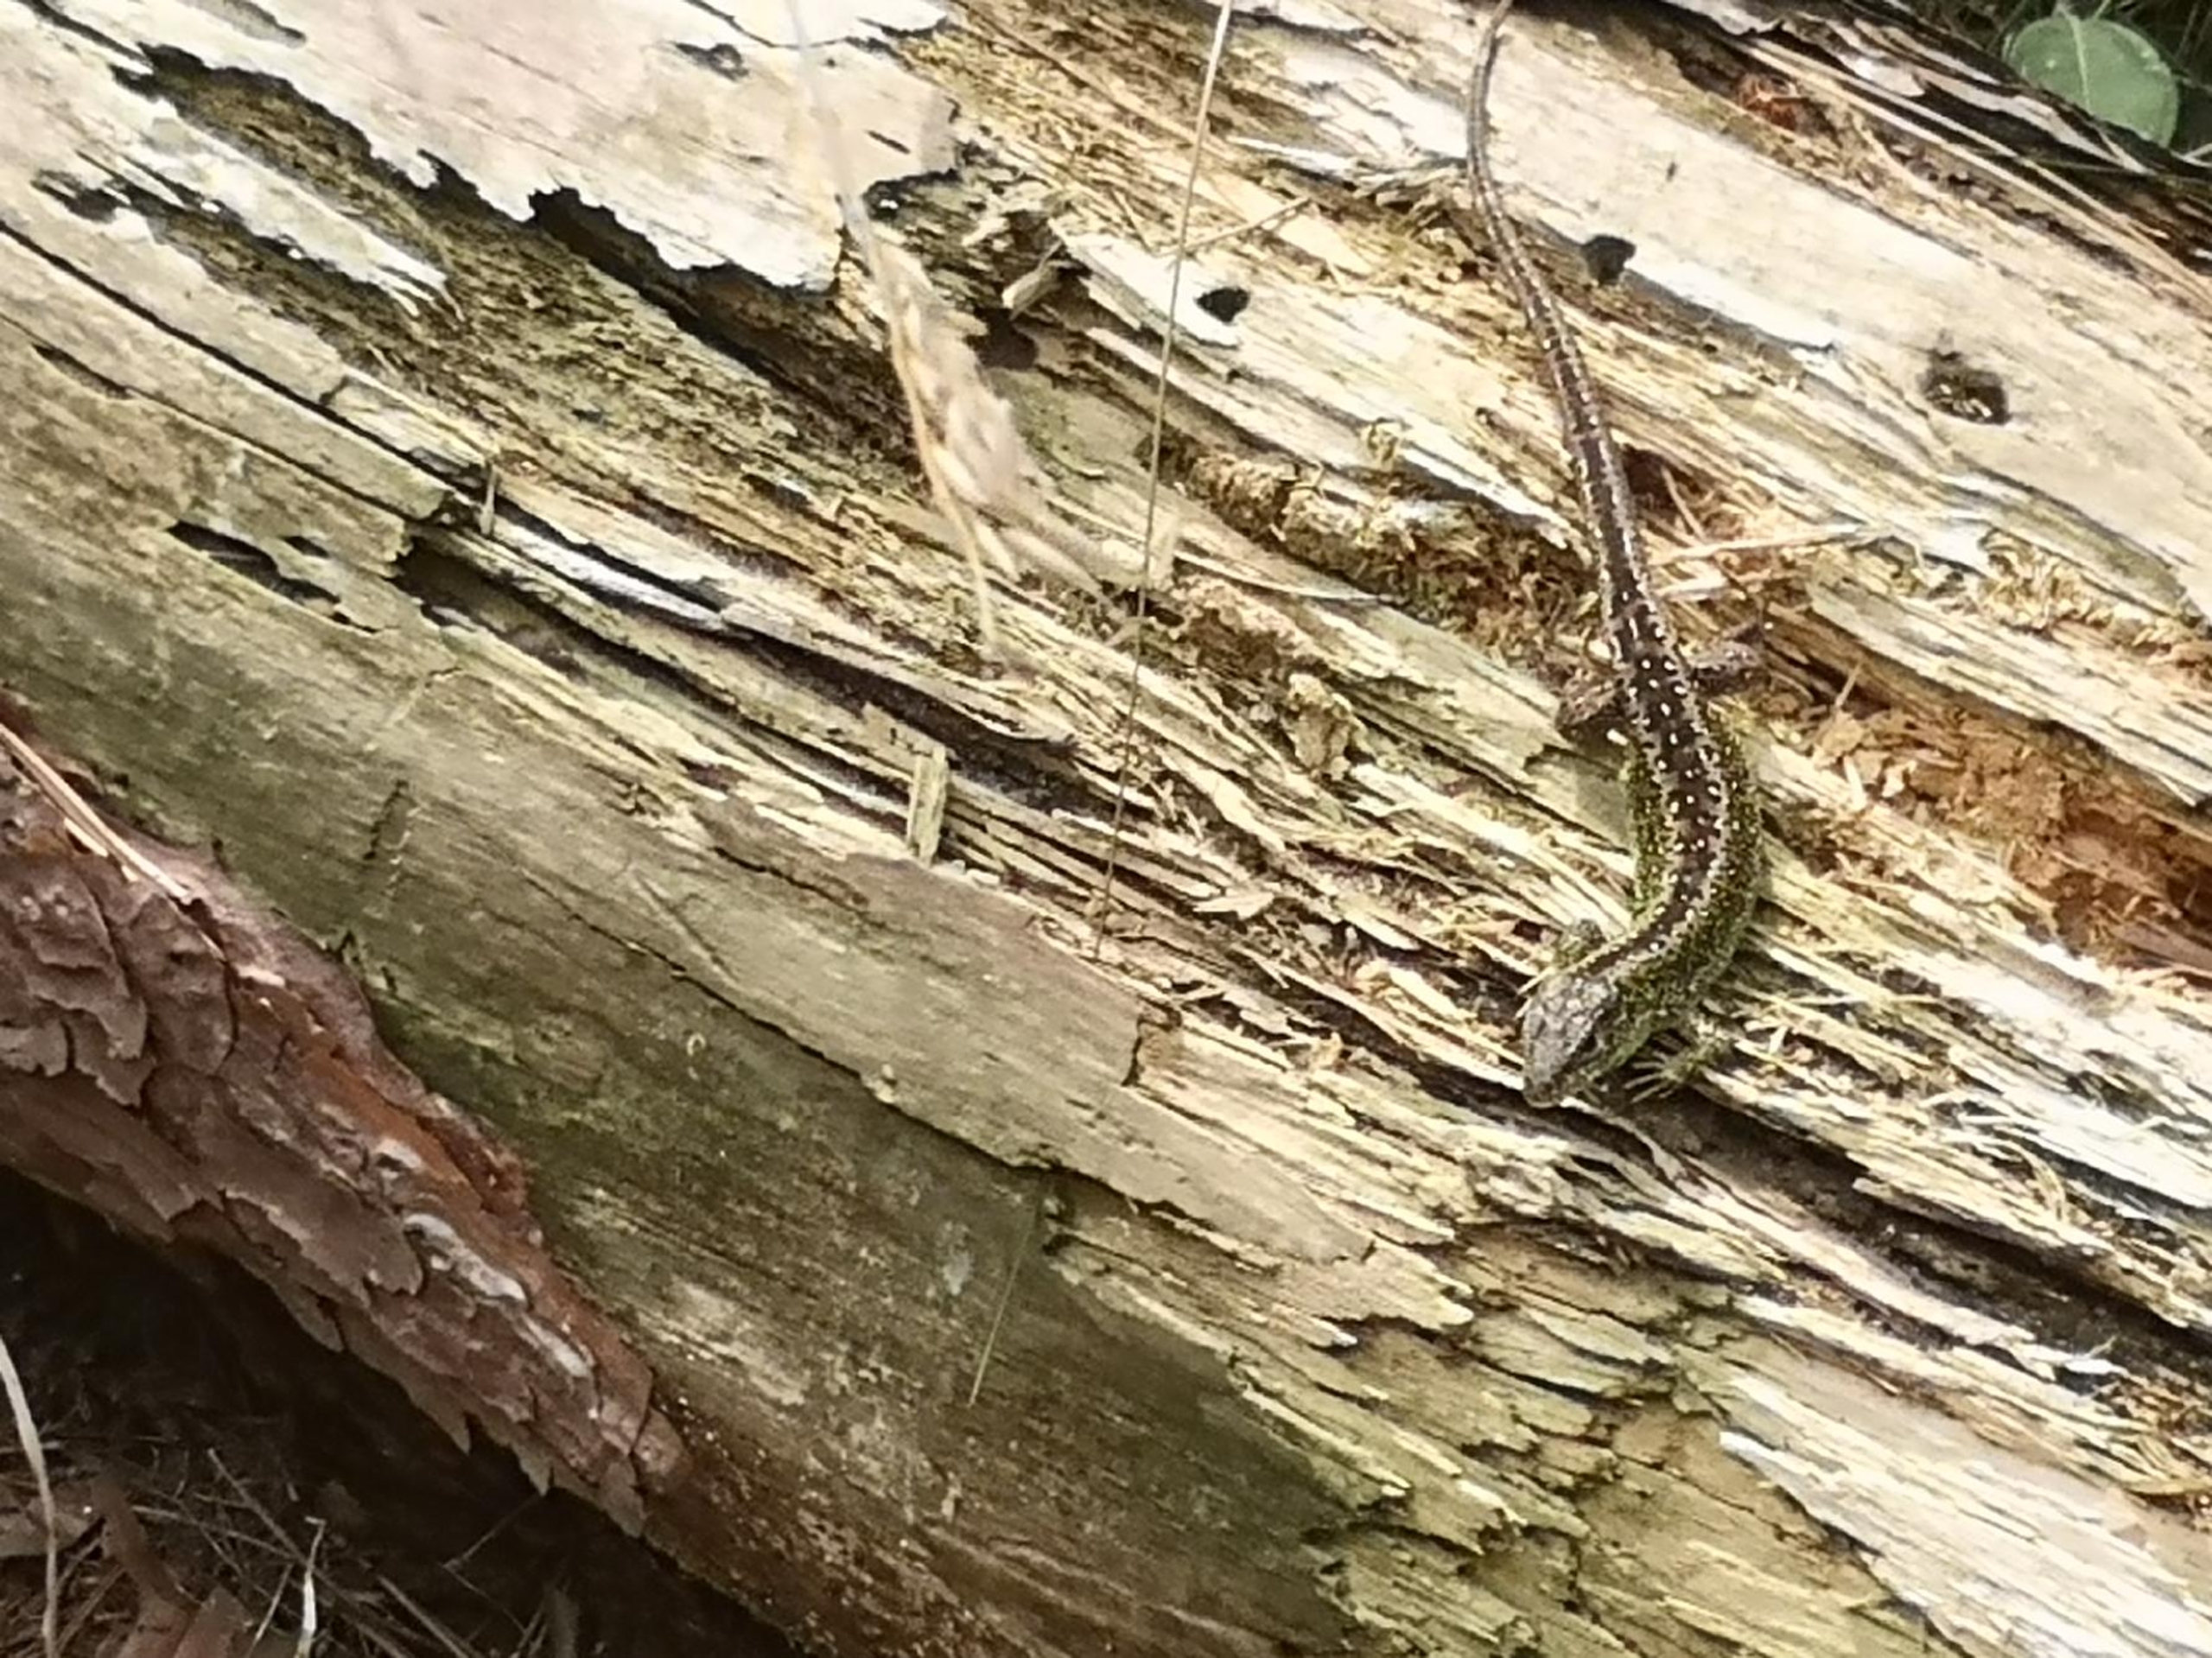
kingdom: Animalia
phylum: Chordata
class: Squamata
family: Lacertidae
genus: Lacerta
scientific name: Lacerta agilis
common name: Markfirben
